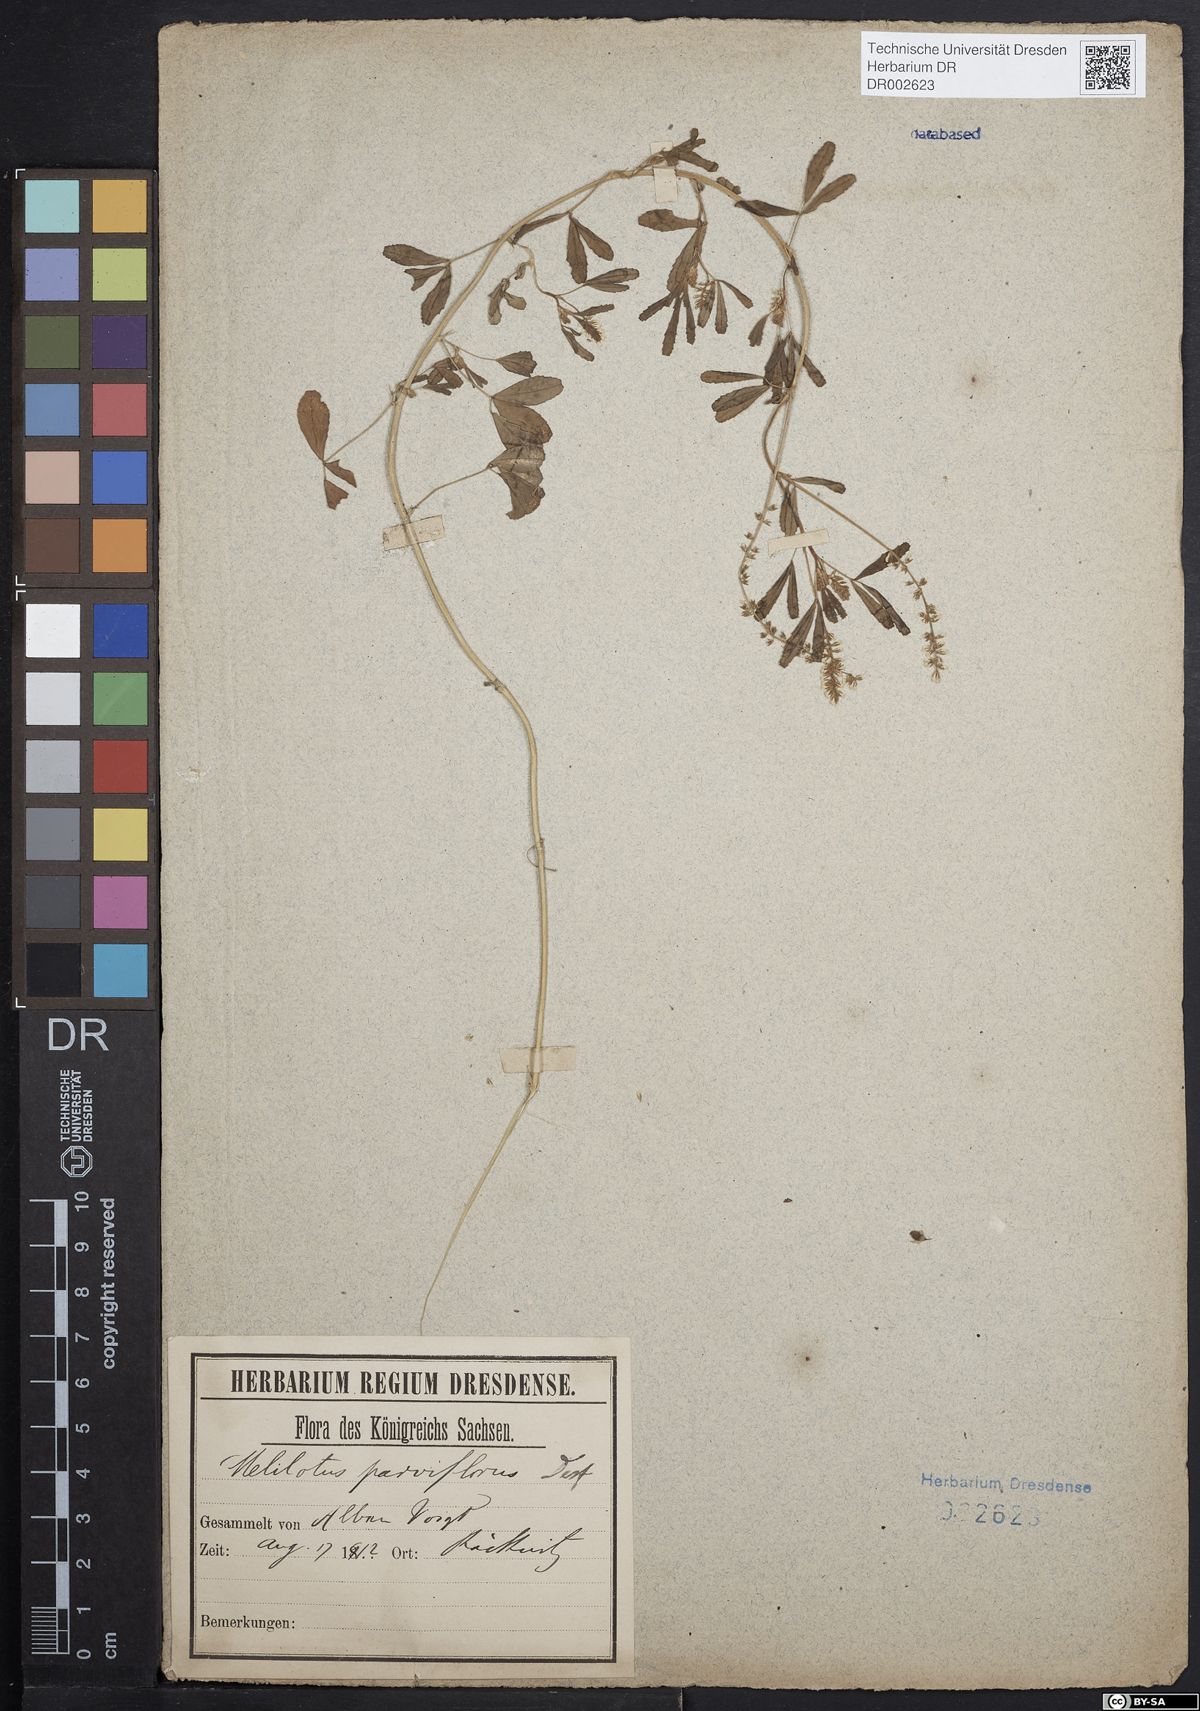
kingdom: Plantae
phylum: Tracheophyta
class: Magnoliopsida
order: Fabales
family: Fabaceae
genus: Melilotus
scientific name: Melilotus indicus
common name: Small melilot
